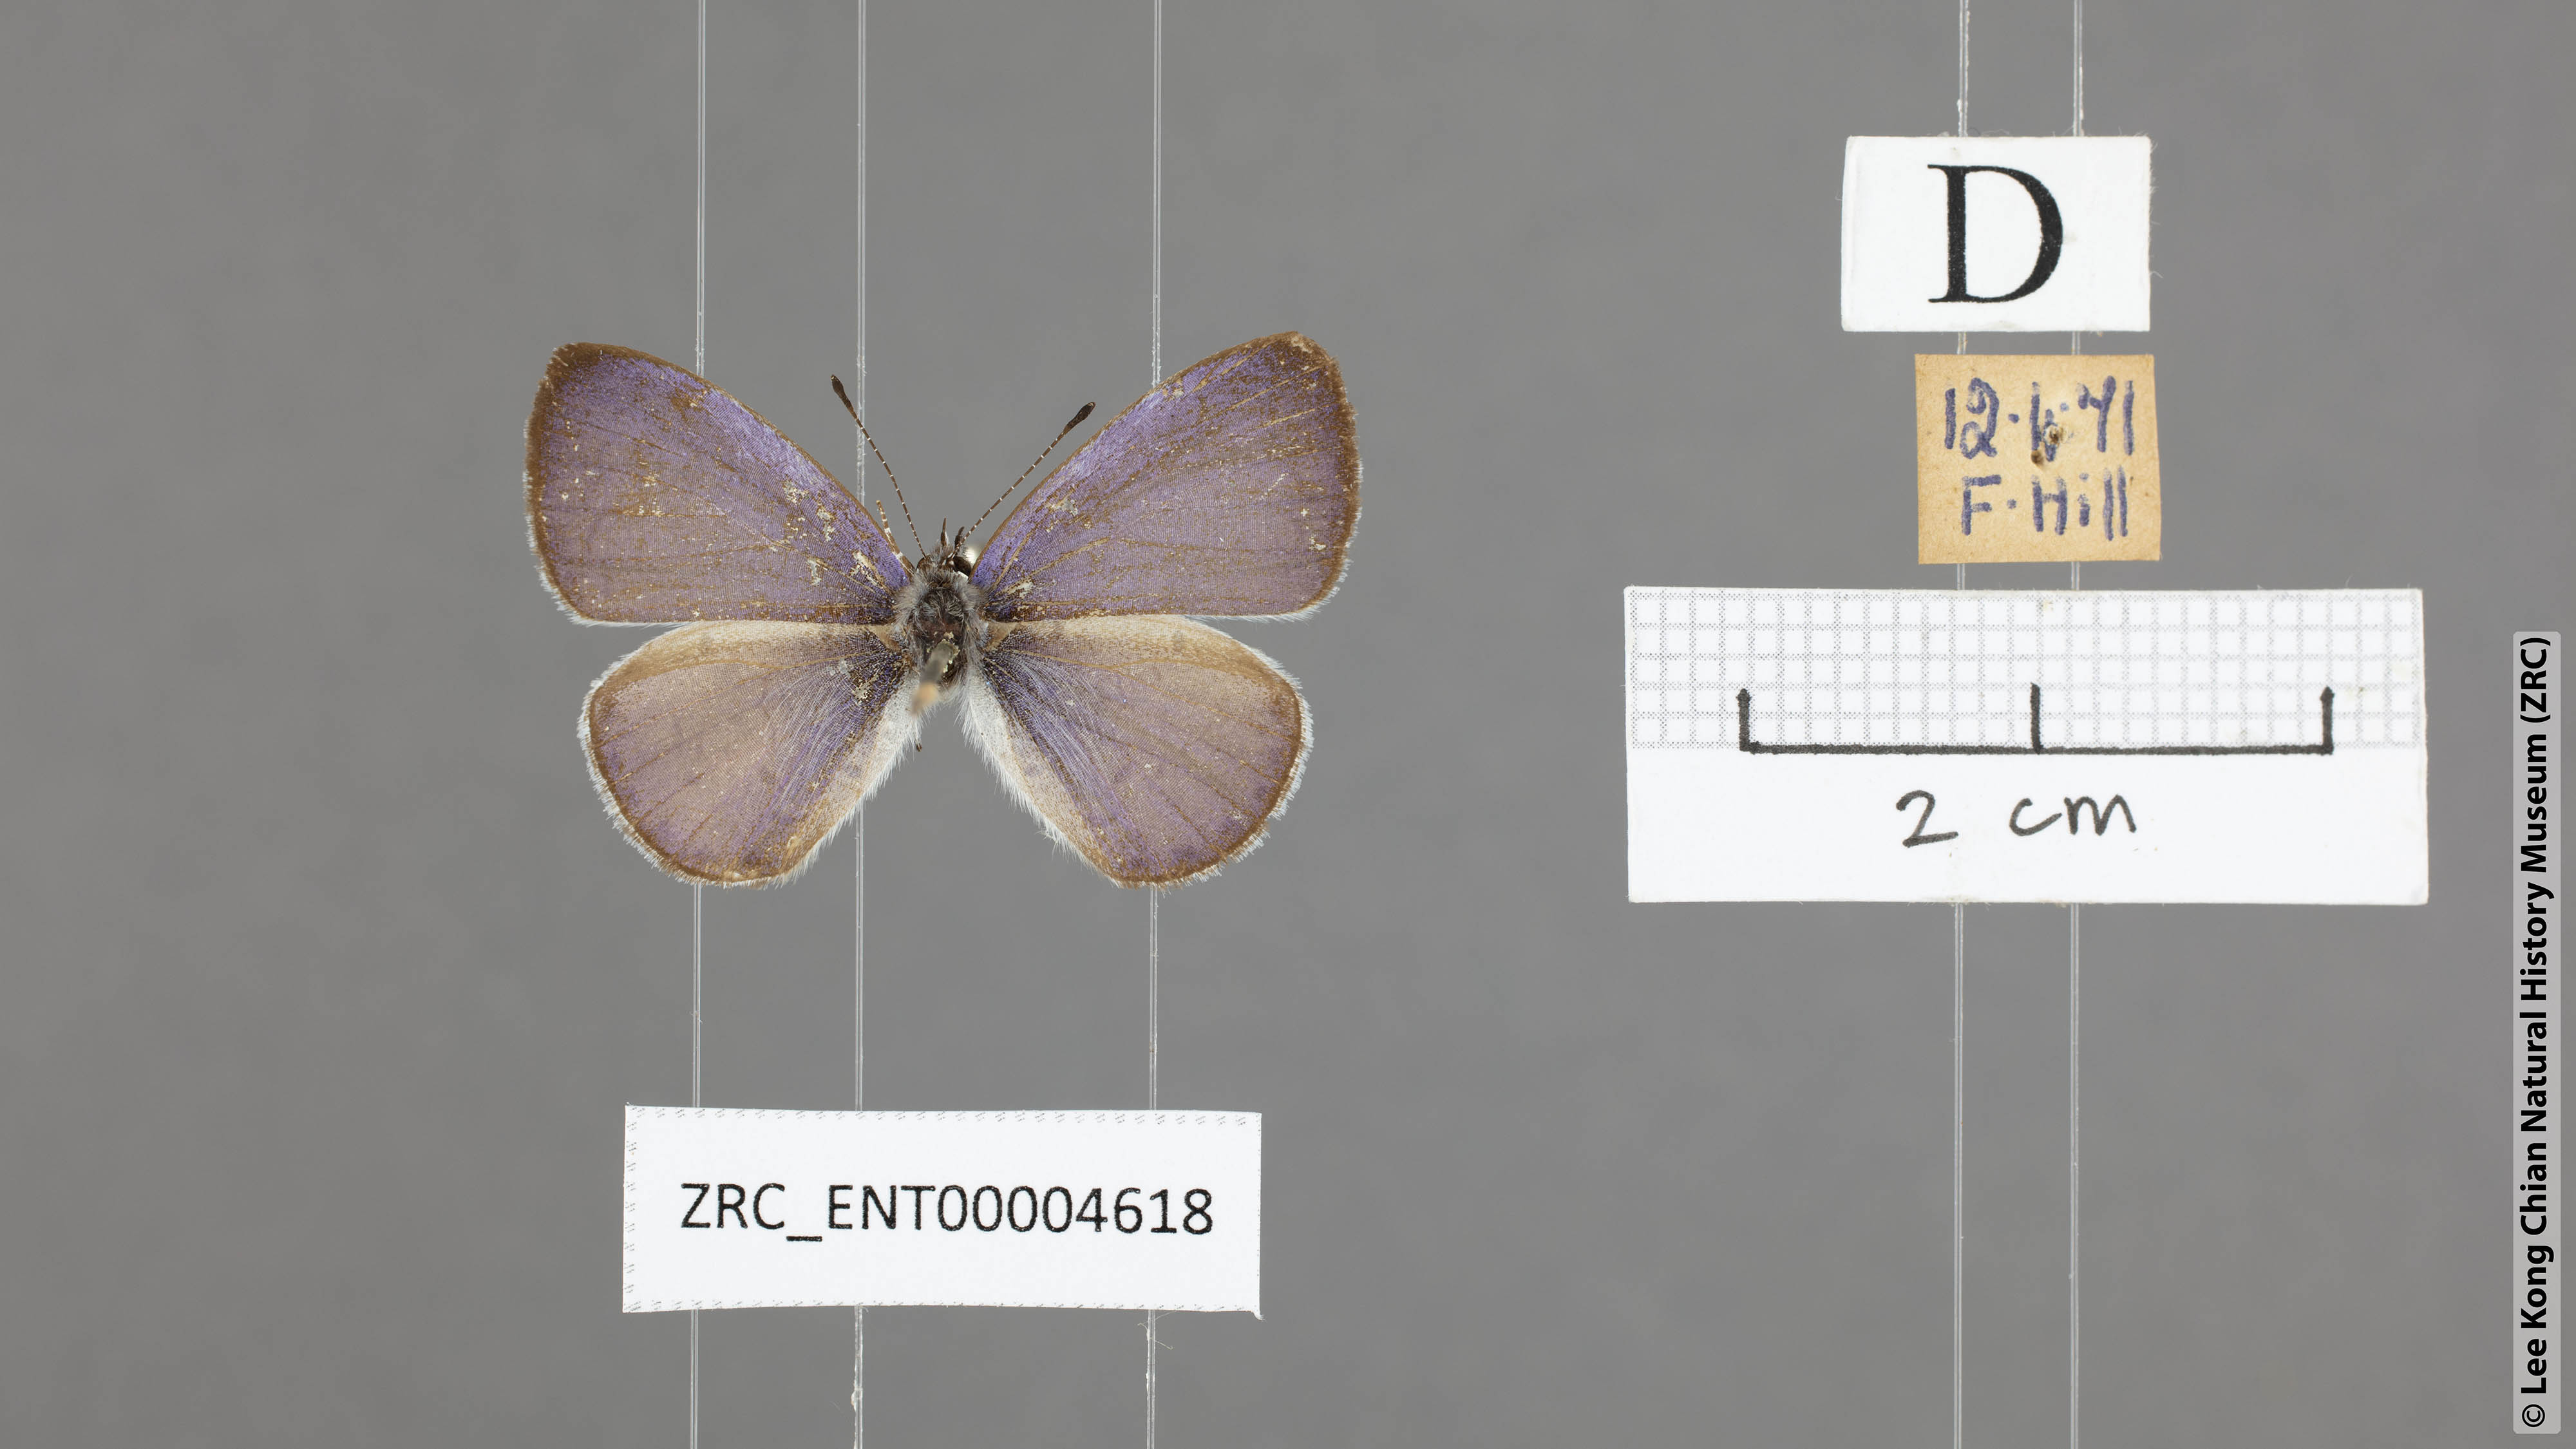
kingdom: Animalia
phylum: Arthropoda
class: Insecta
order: Lepidoptera
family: Lycaenidae
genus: Udara
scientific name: Udara camenae
